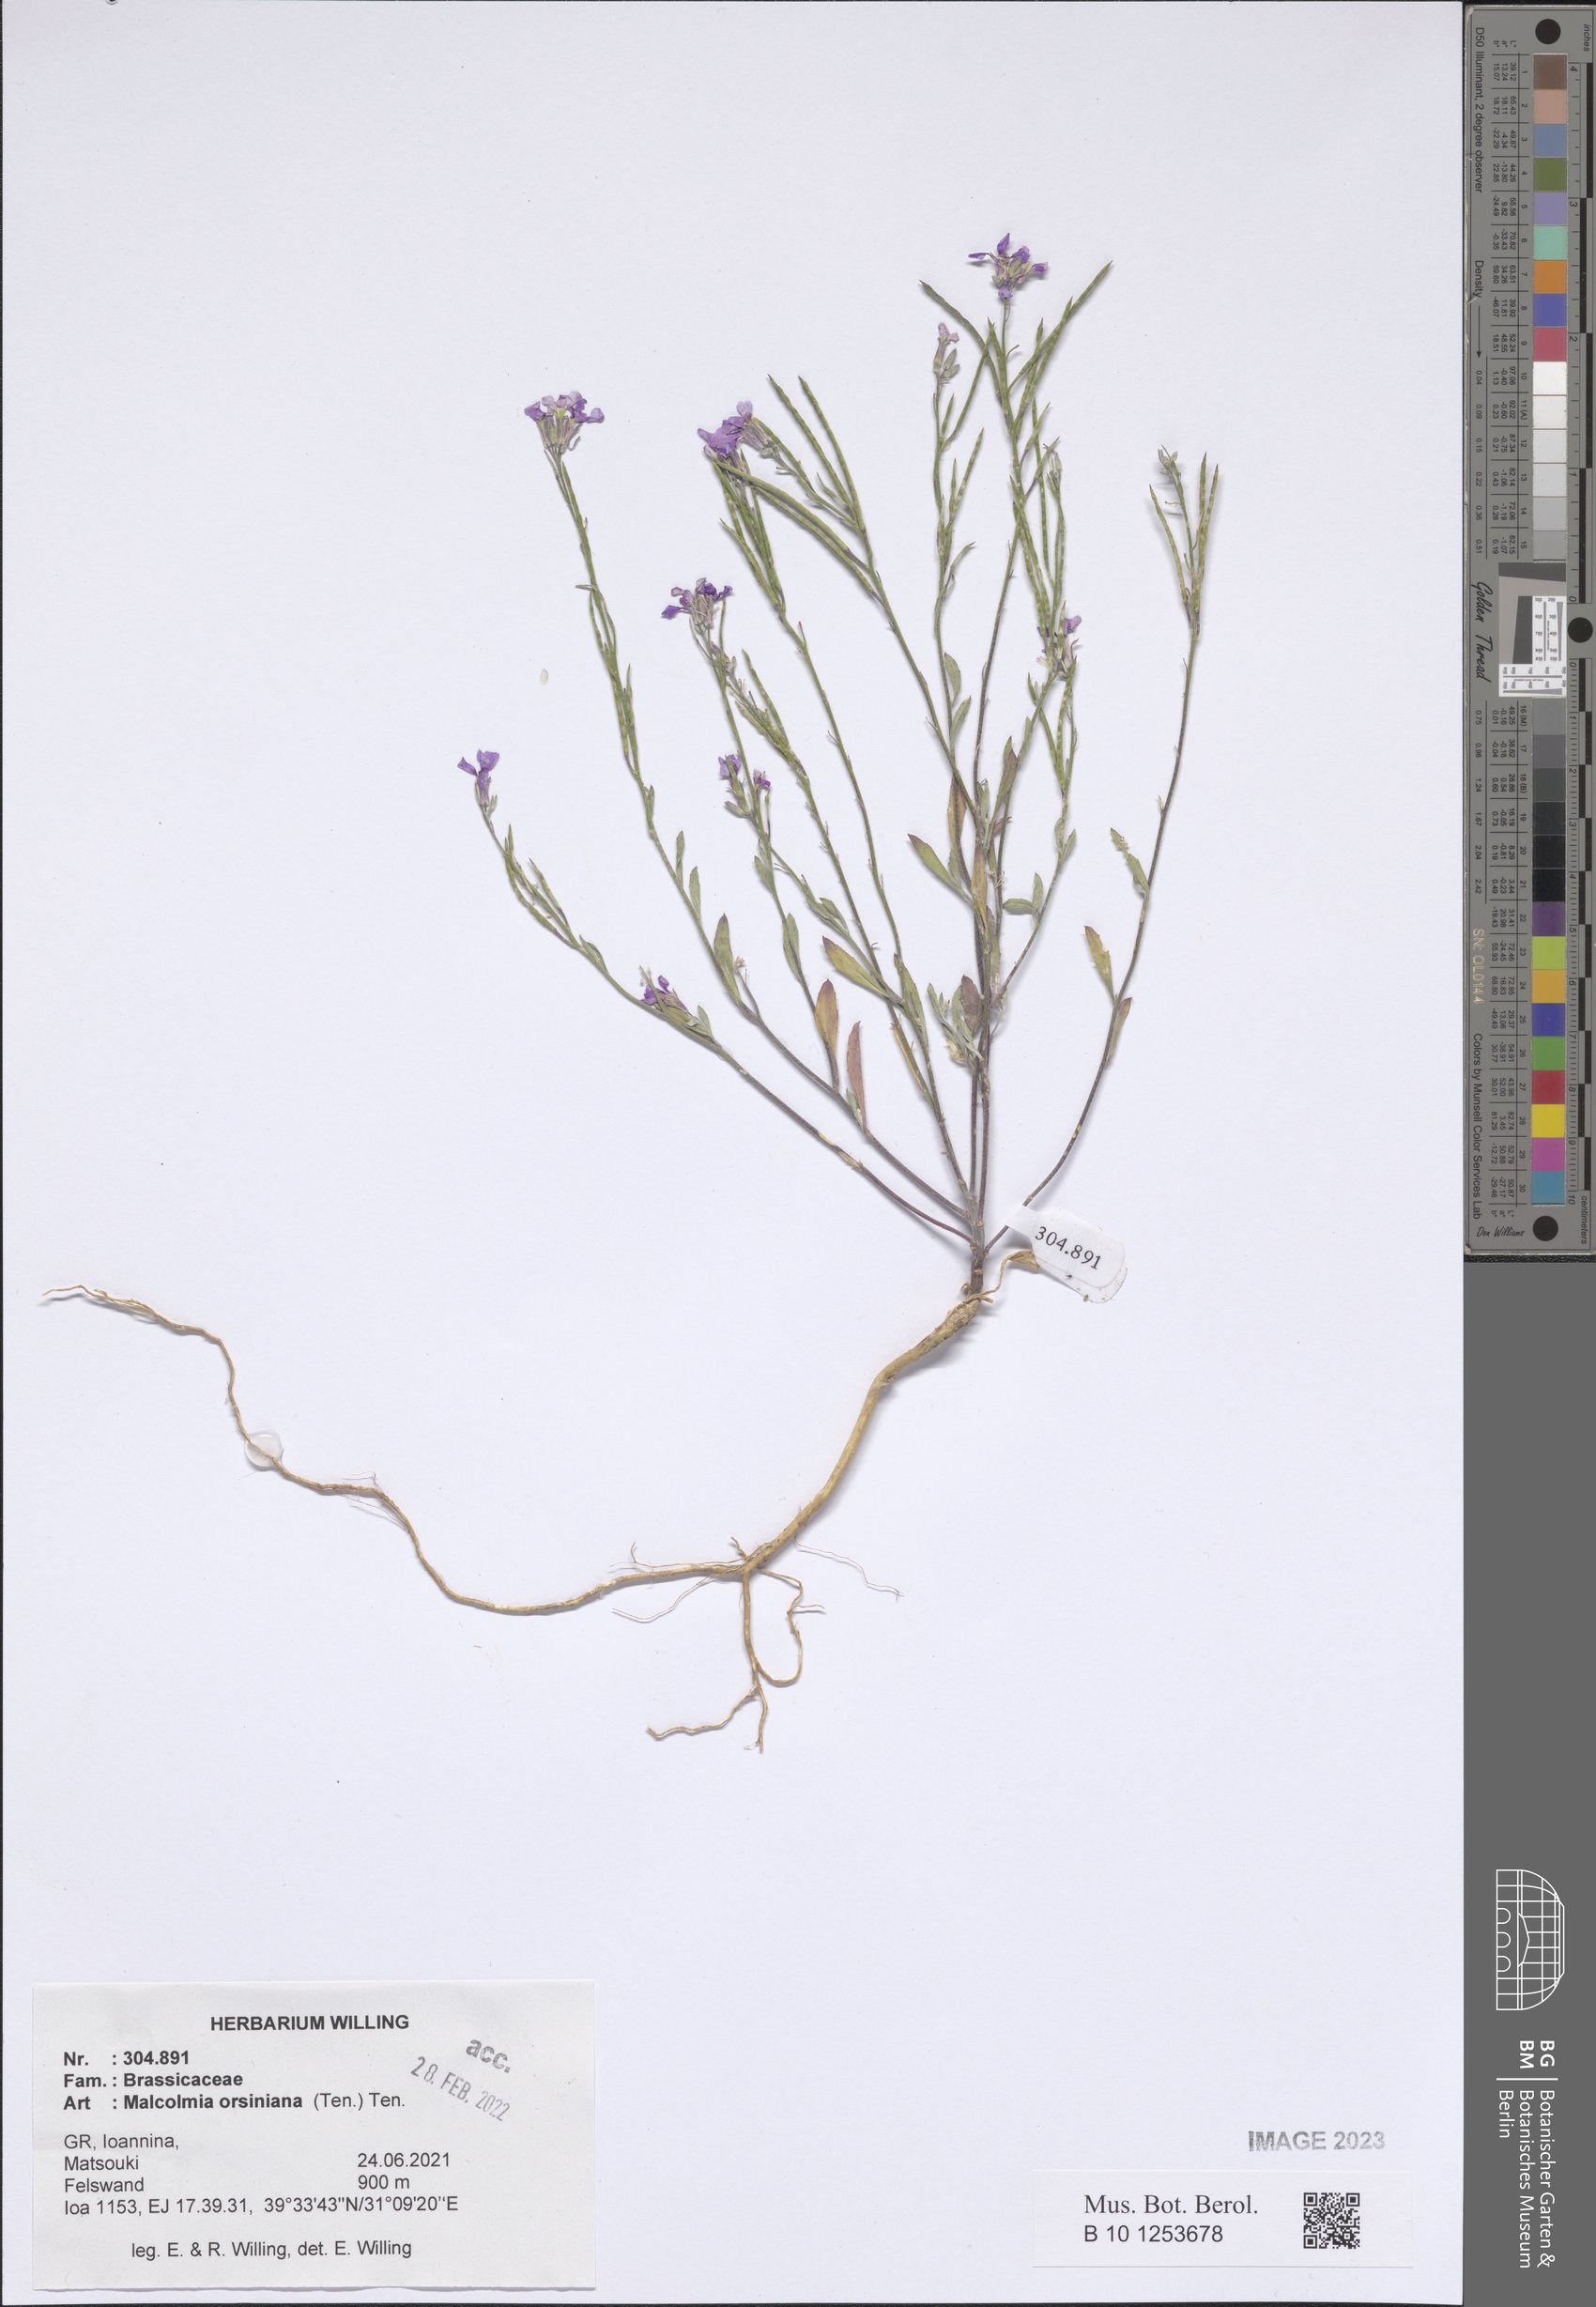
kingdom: Plantae
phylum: Tracheophyta
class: Magnoliopsida
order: Brassicales
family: Brassicaceae
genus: Malcolmia
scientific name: Malcolmia orsiniana
